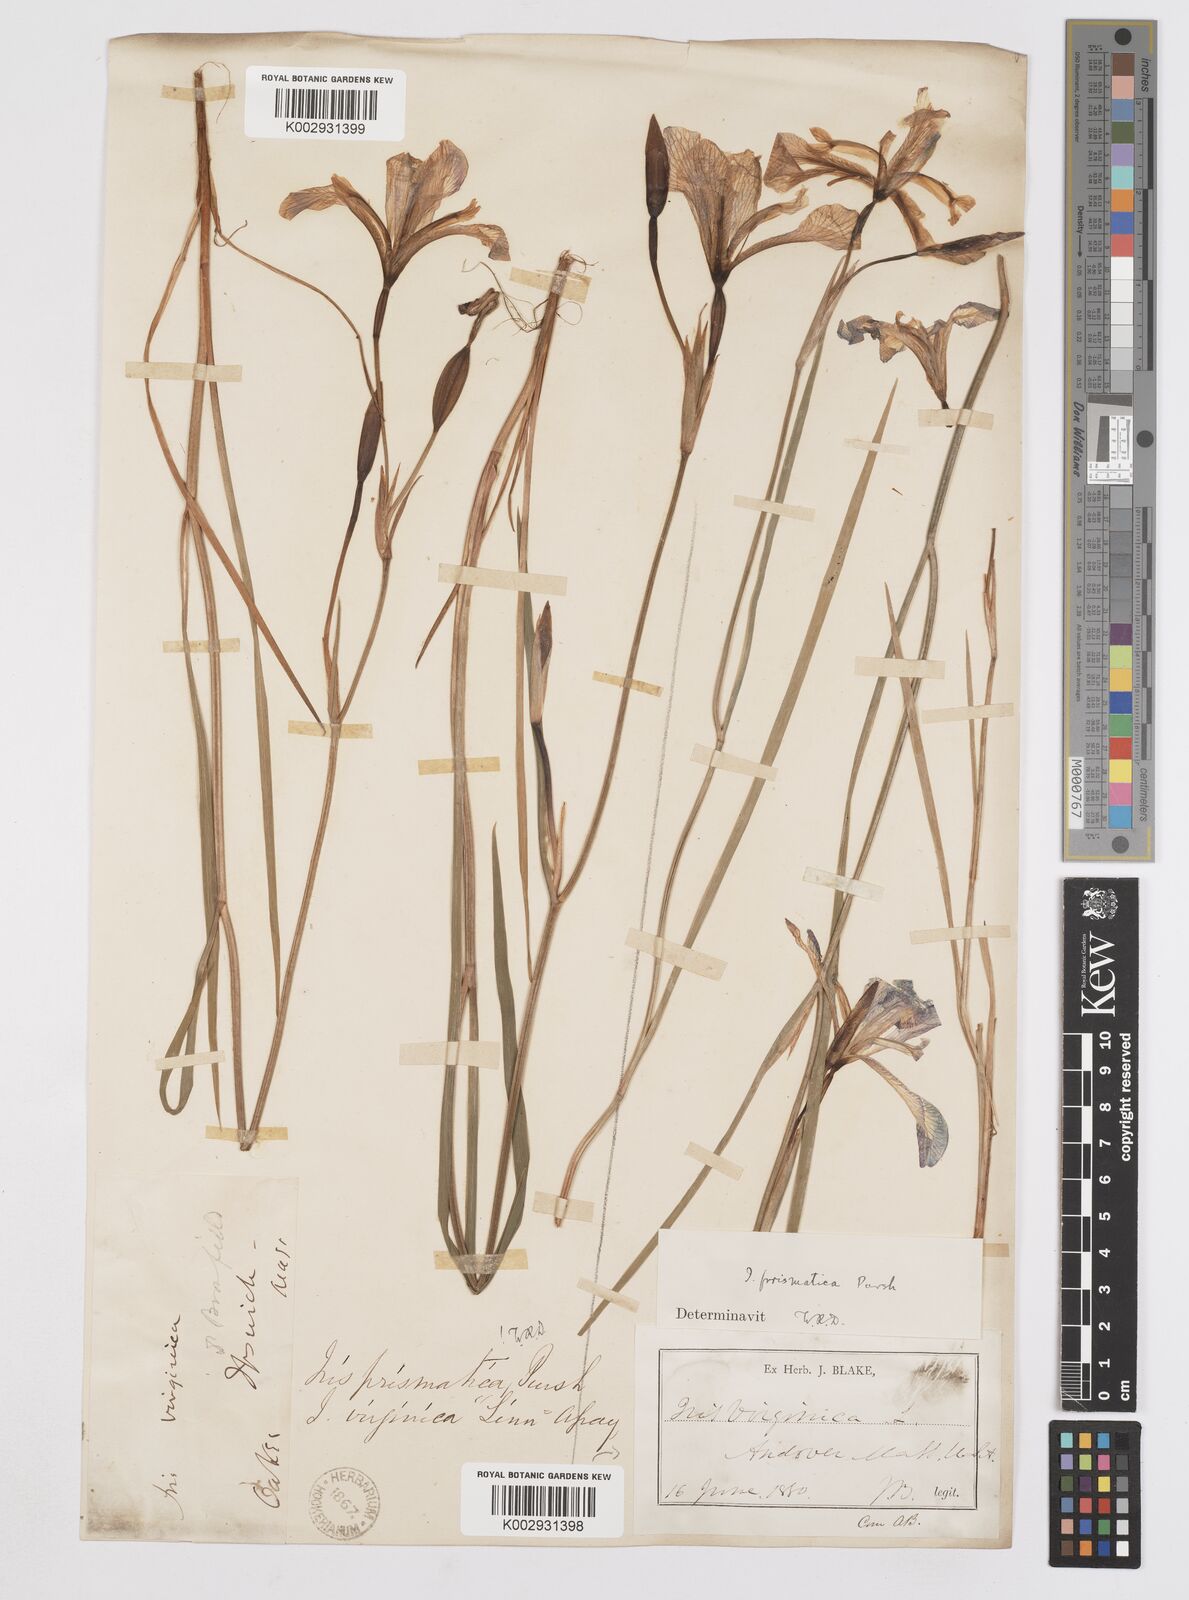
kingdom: Plantae
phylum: Tracheophyta
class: Liliopsida
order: Asparagales
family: Iridaceae
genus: Iris
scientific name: Iris prismatica
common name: Slender blue flag
